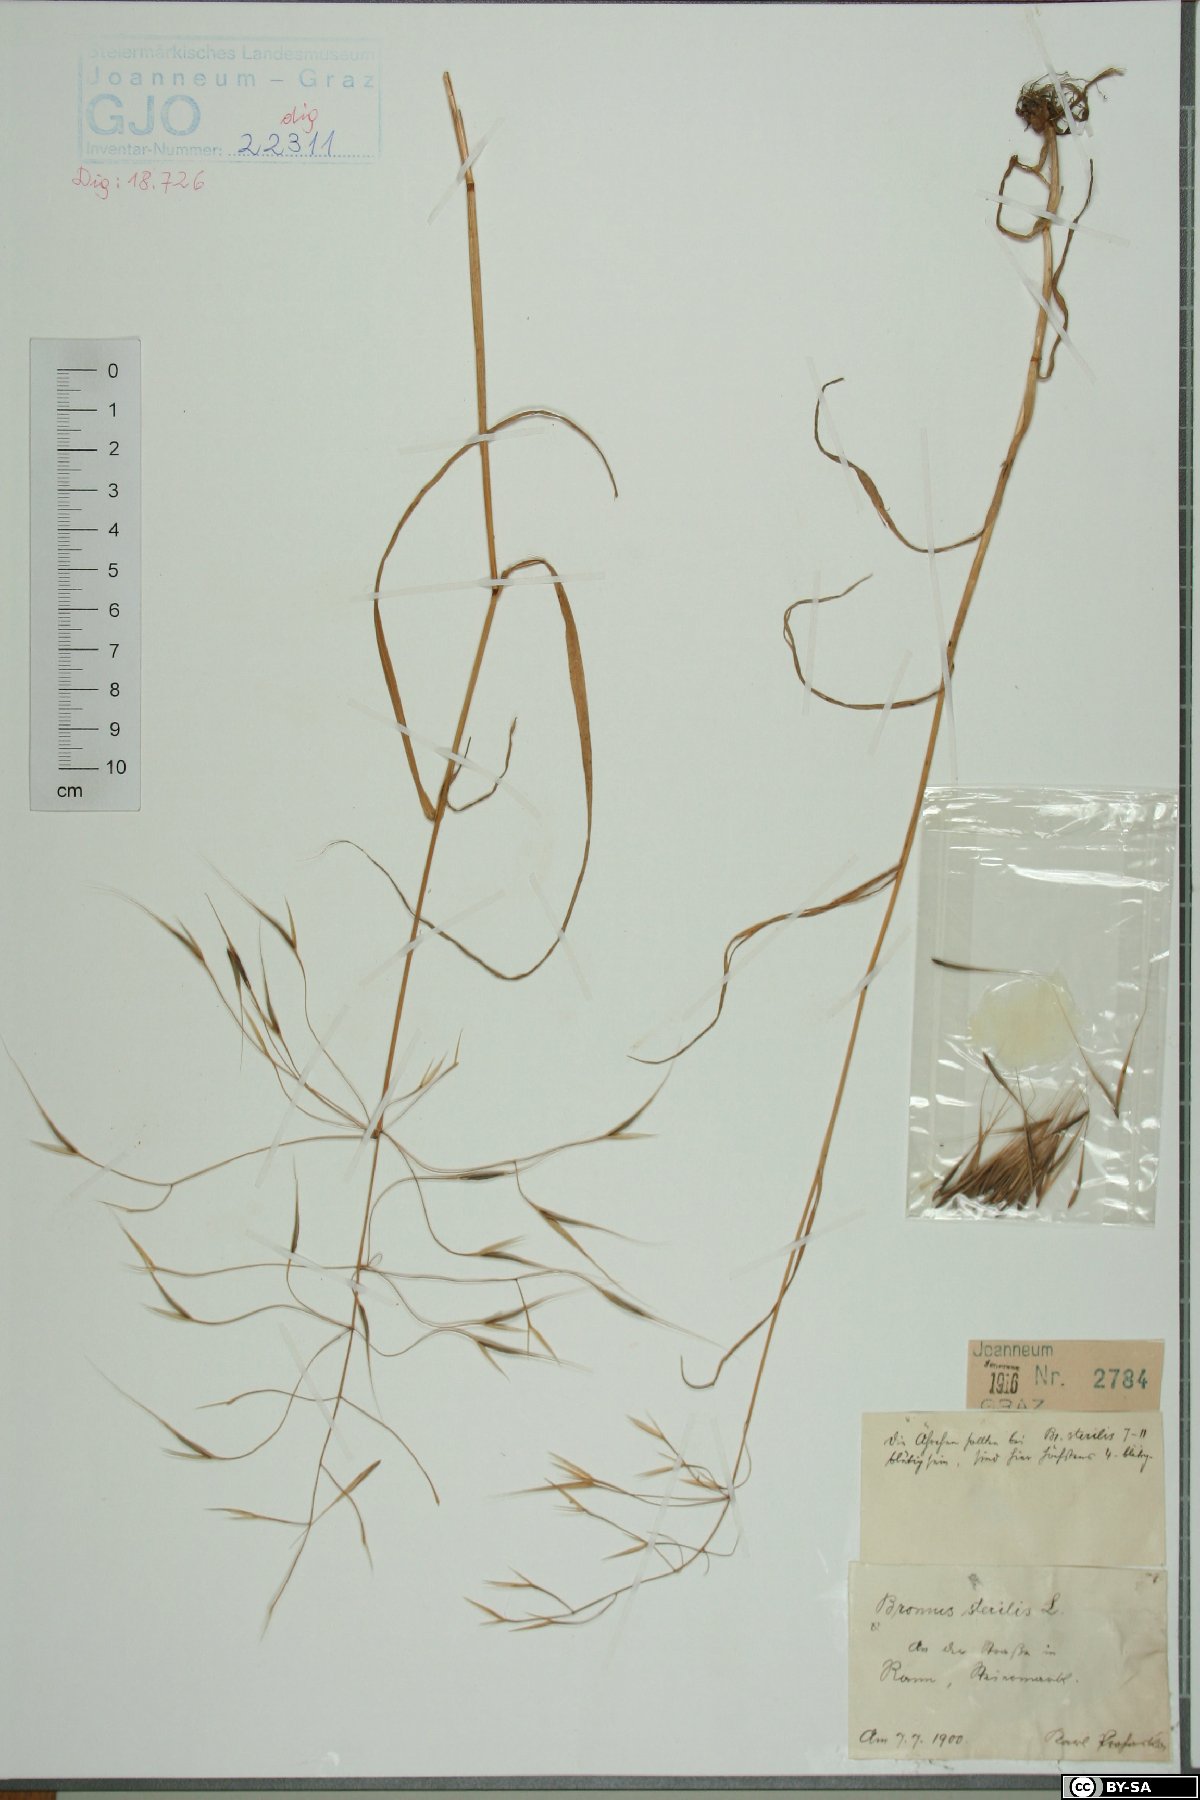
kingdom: Plantae
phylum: Tracheophyta
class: Liliopsida
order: Poales
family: Poaceae
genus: Bromus
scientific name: Bromus sterilis
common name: Poverty brome
